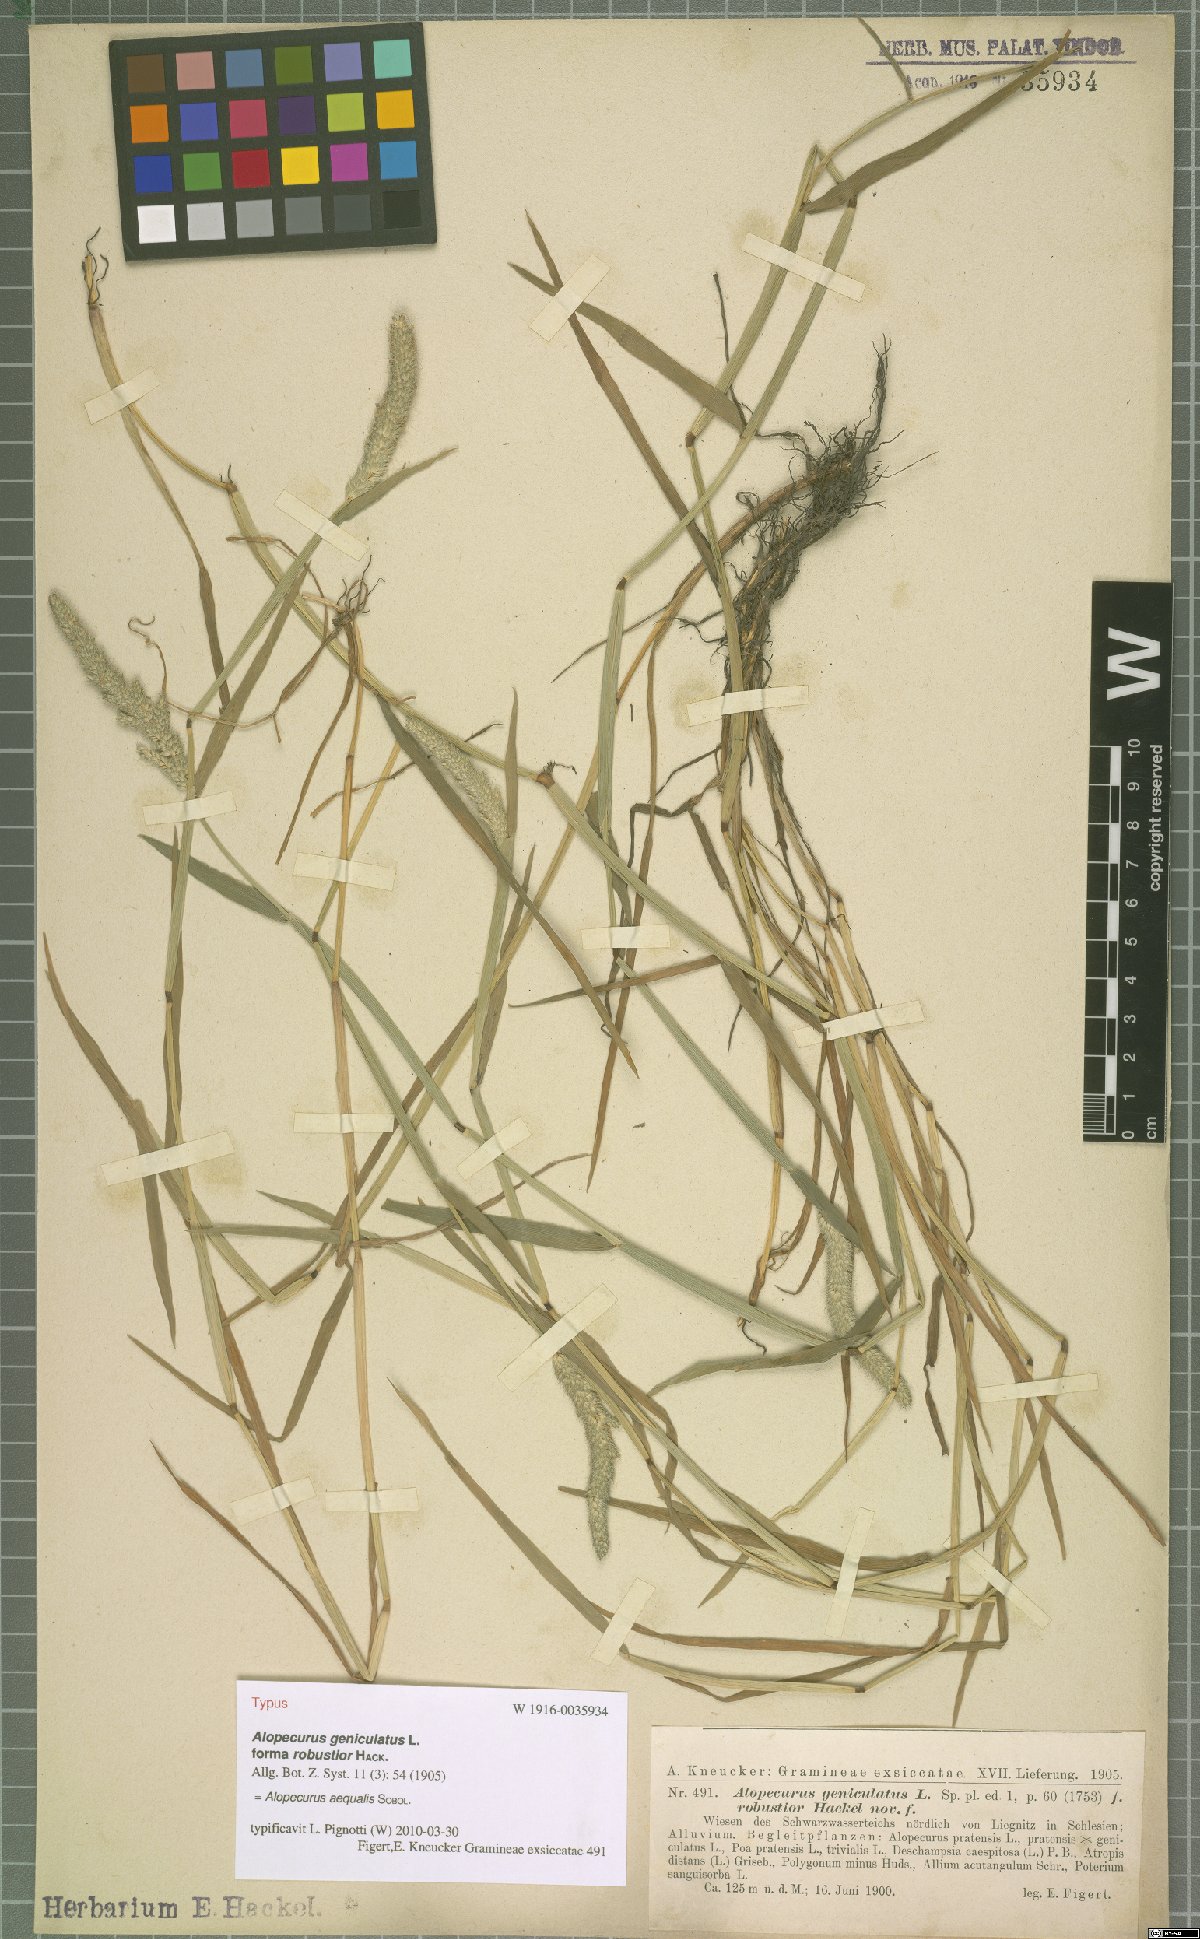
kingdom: Plantae
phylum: Tracheophyta
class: Liliopsida
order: Poales
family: Poaceae
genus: Alopecurus
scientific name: Alopecurus aequalis
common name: Orange foxtail
